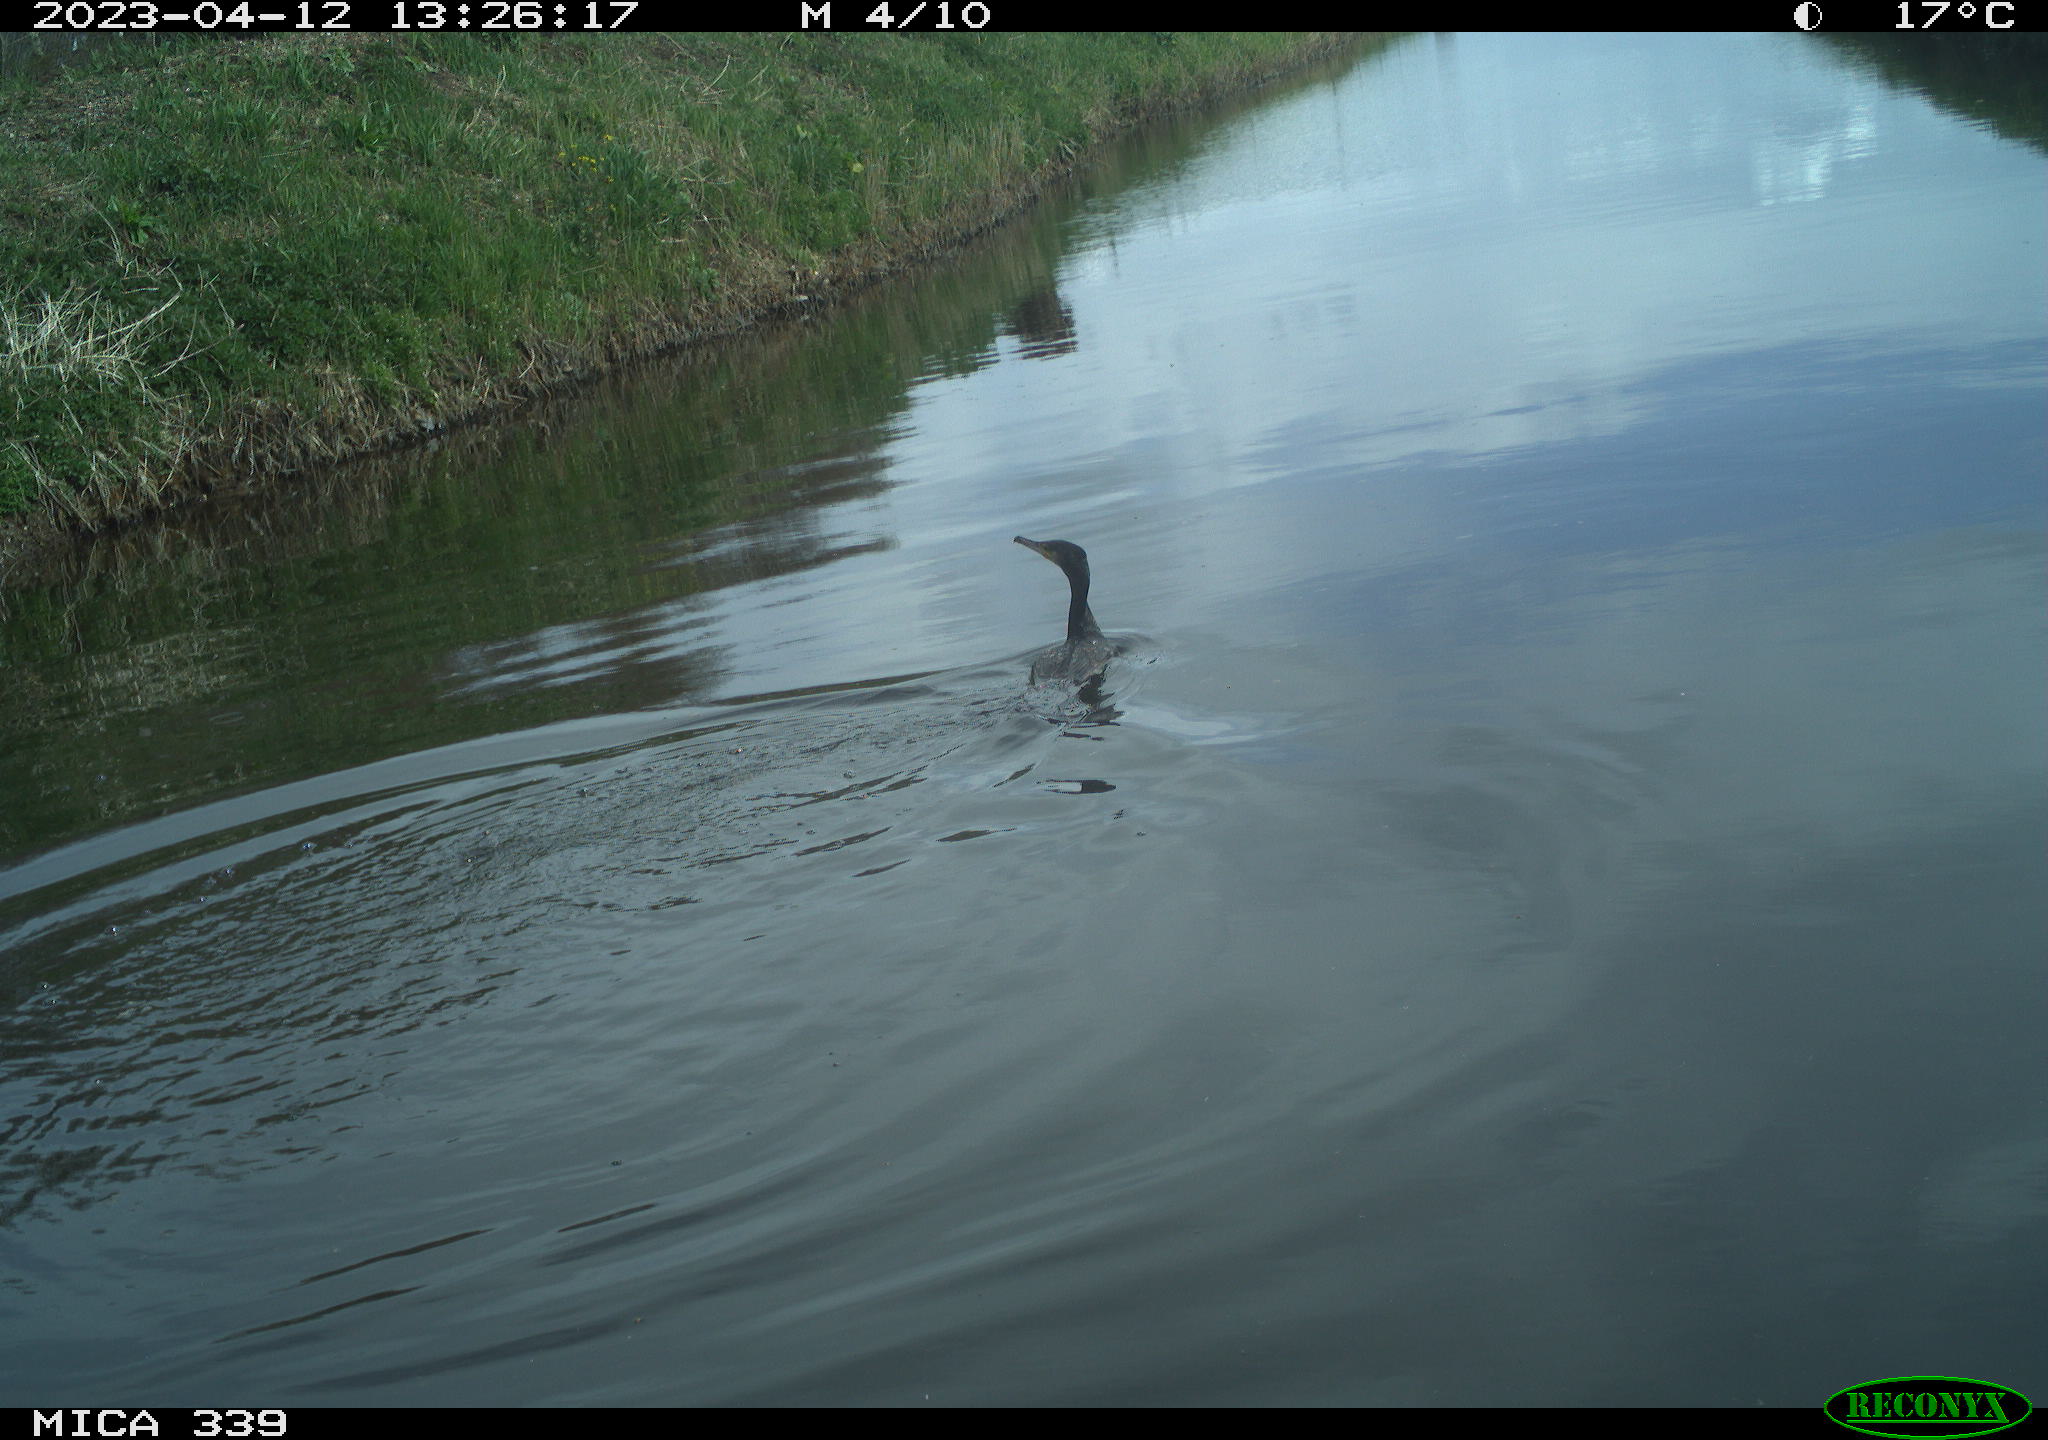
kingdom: Animalia
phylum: Chordata
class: Aves
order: Anseriformes
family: Anatidae
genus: Anas
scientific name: Anas
